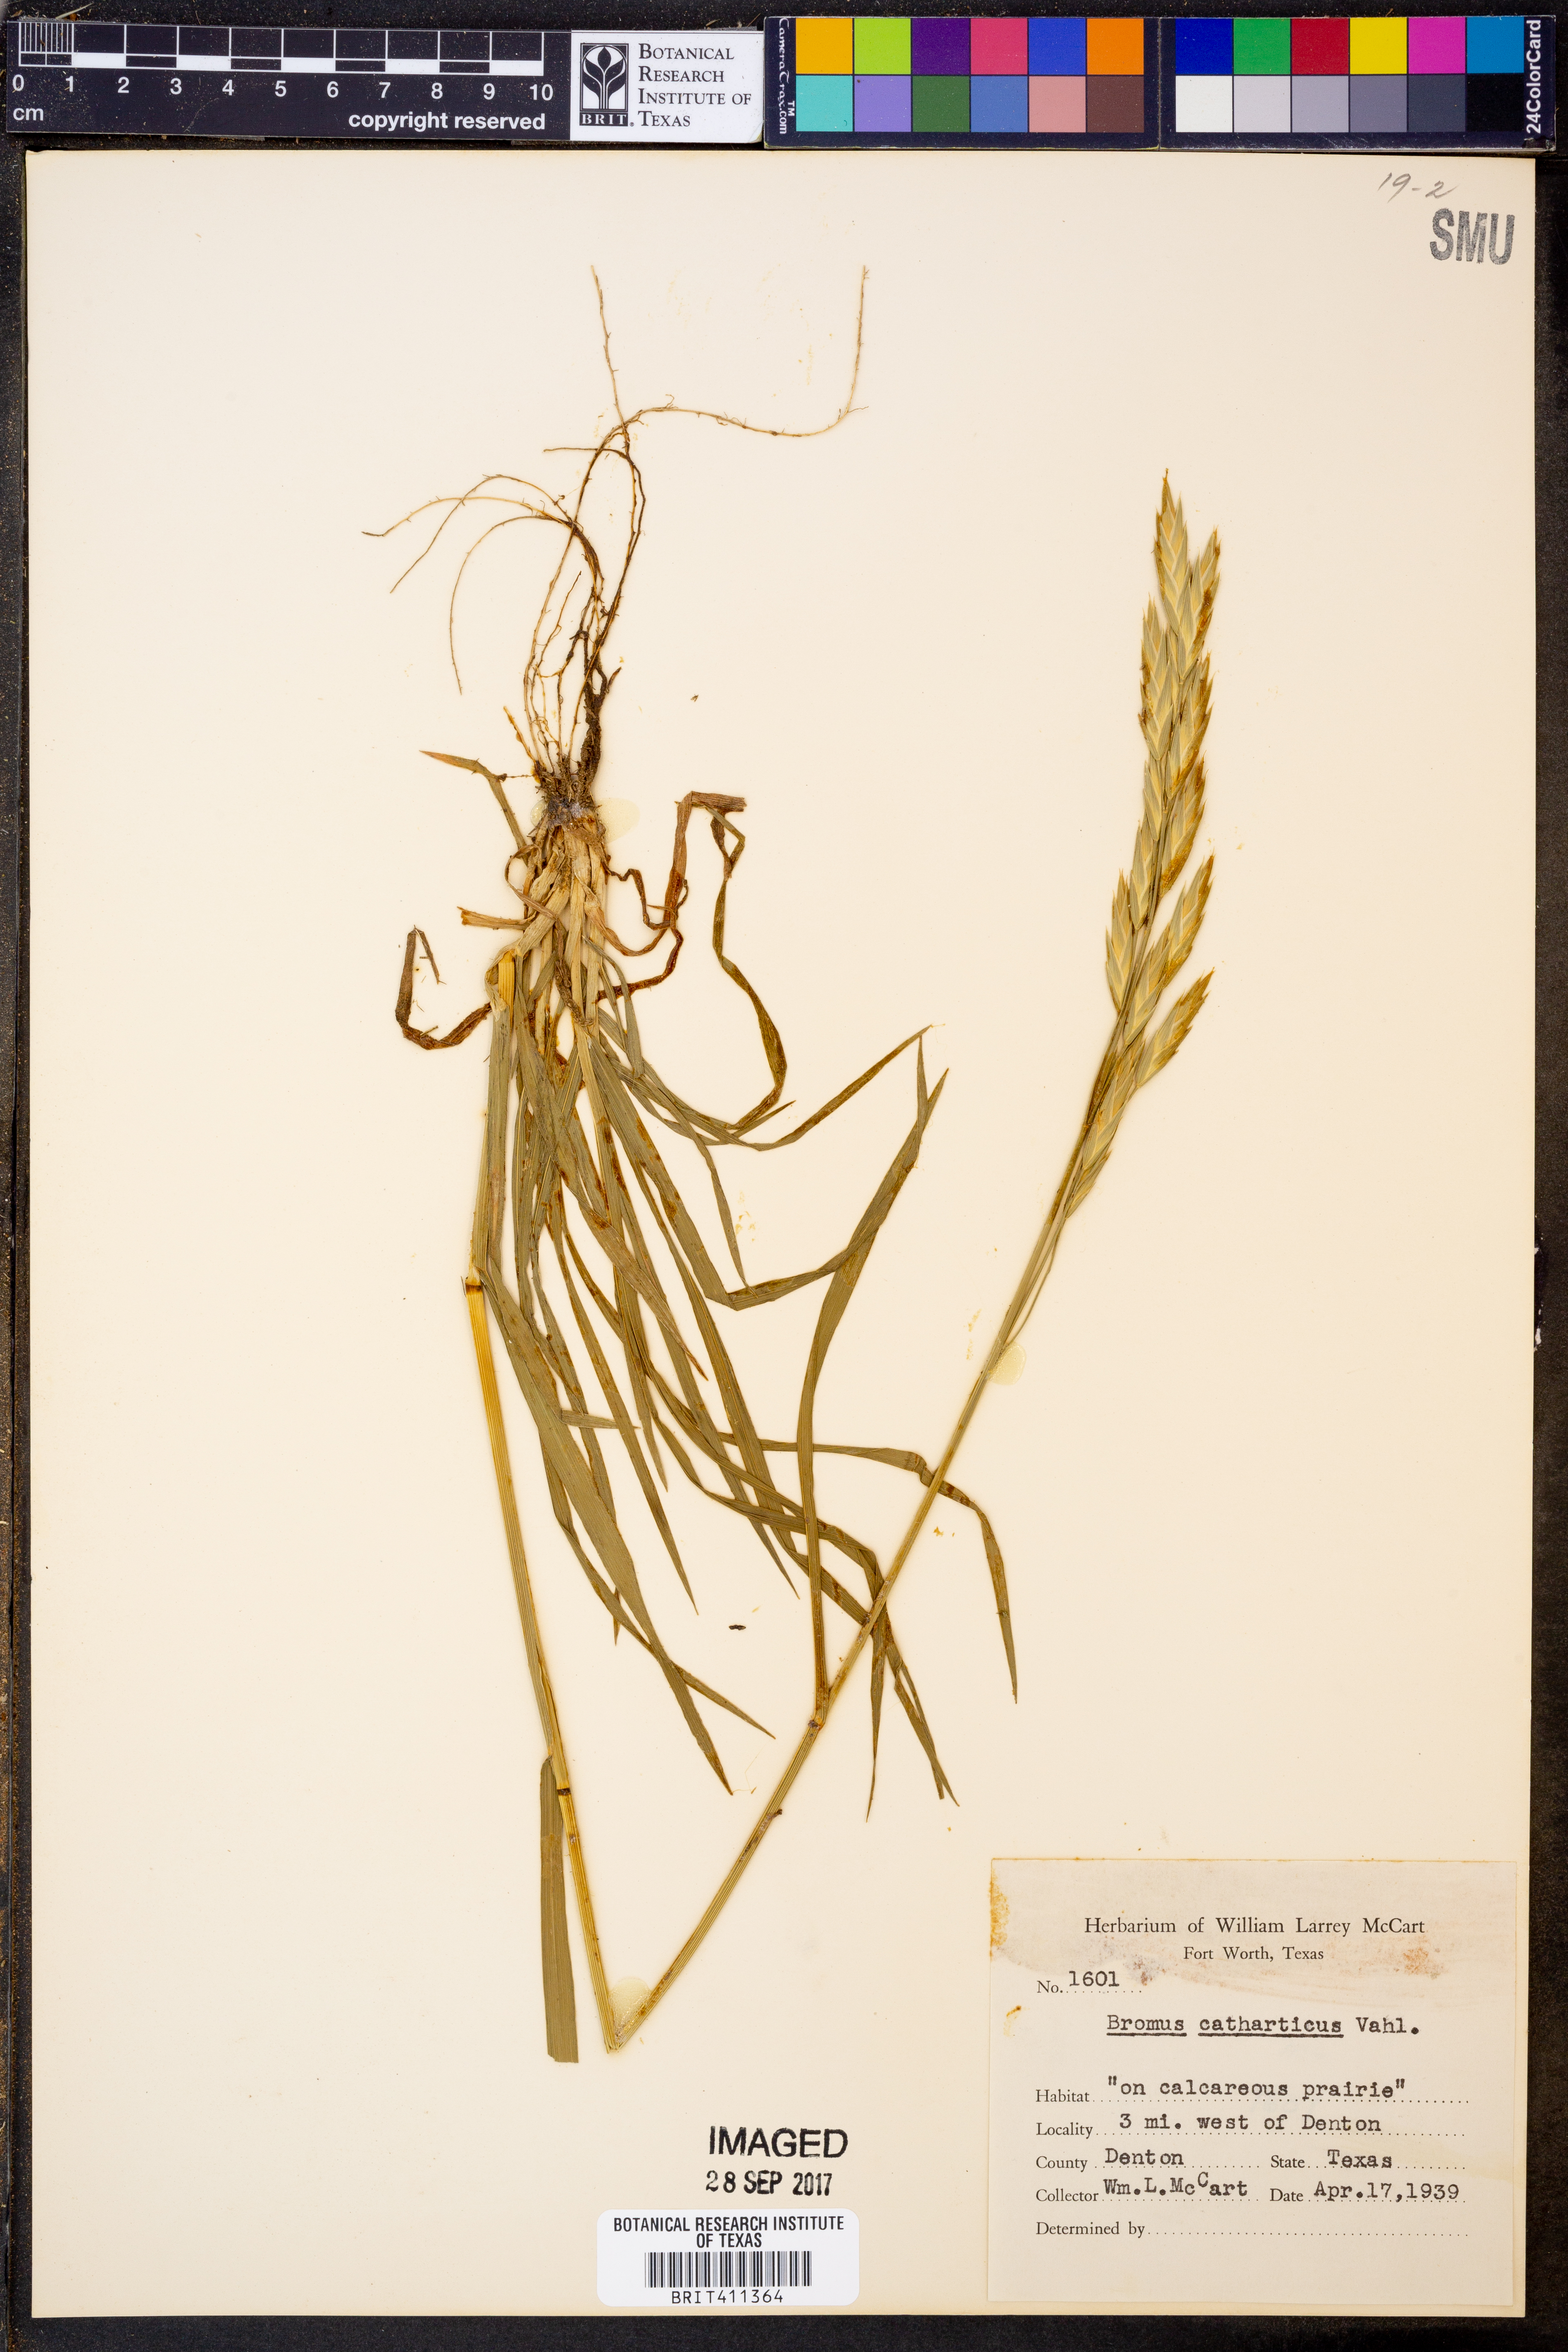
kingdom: Plantae
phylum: Tracheophyta
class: Liliopsida
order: Poales
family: Poaceae
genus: Bromus
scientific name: Bromus catharticus
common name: Rescuegrass
